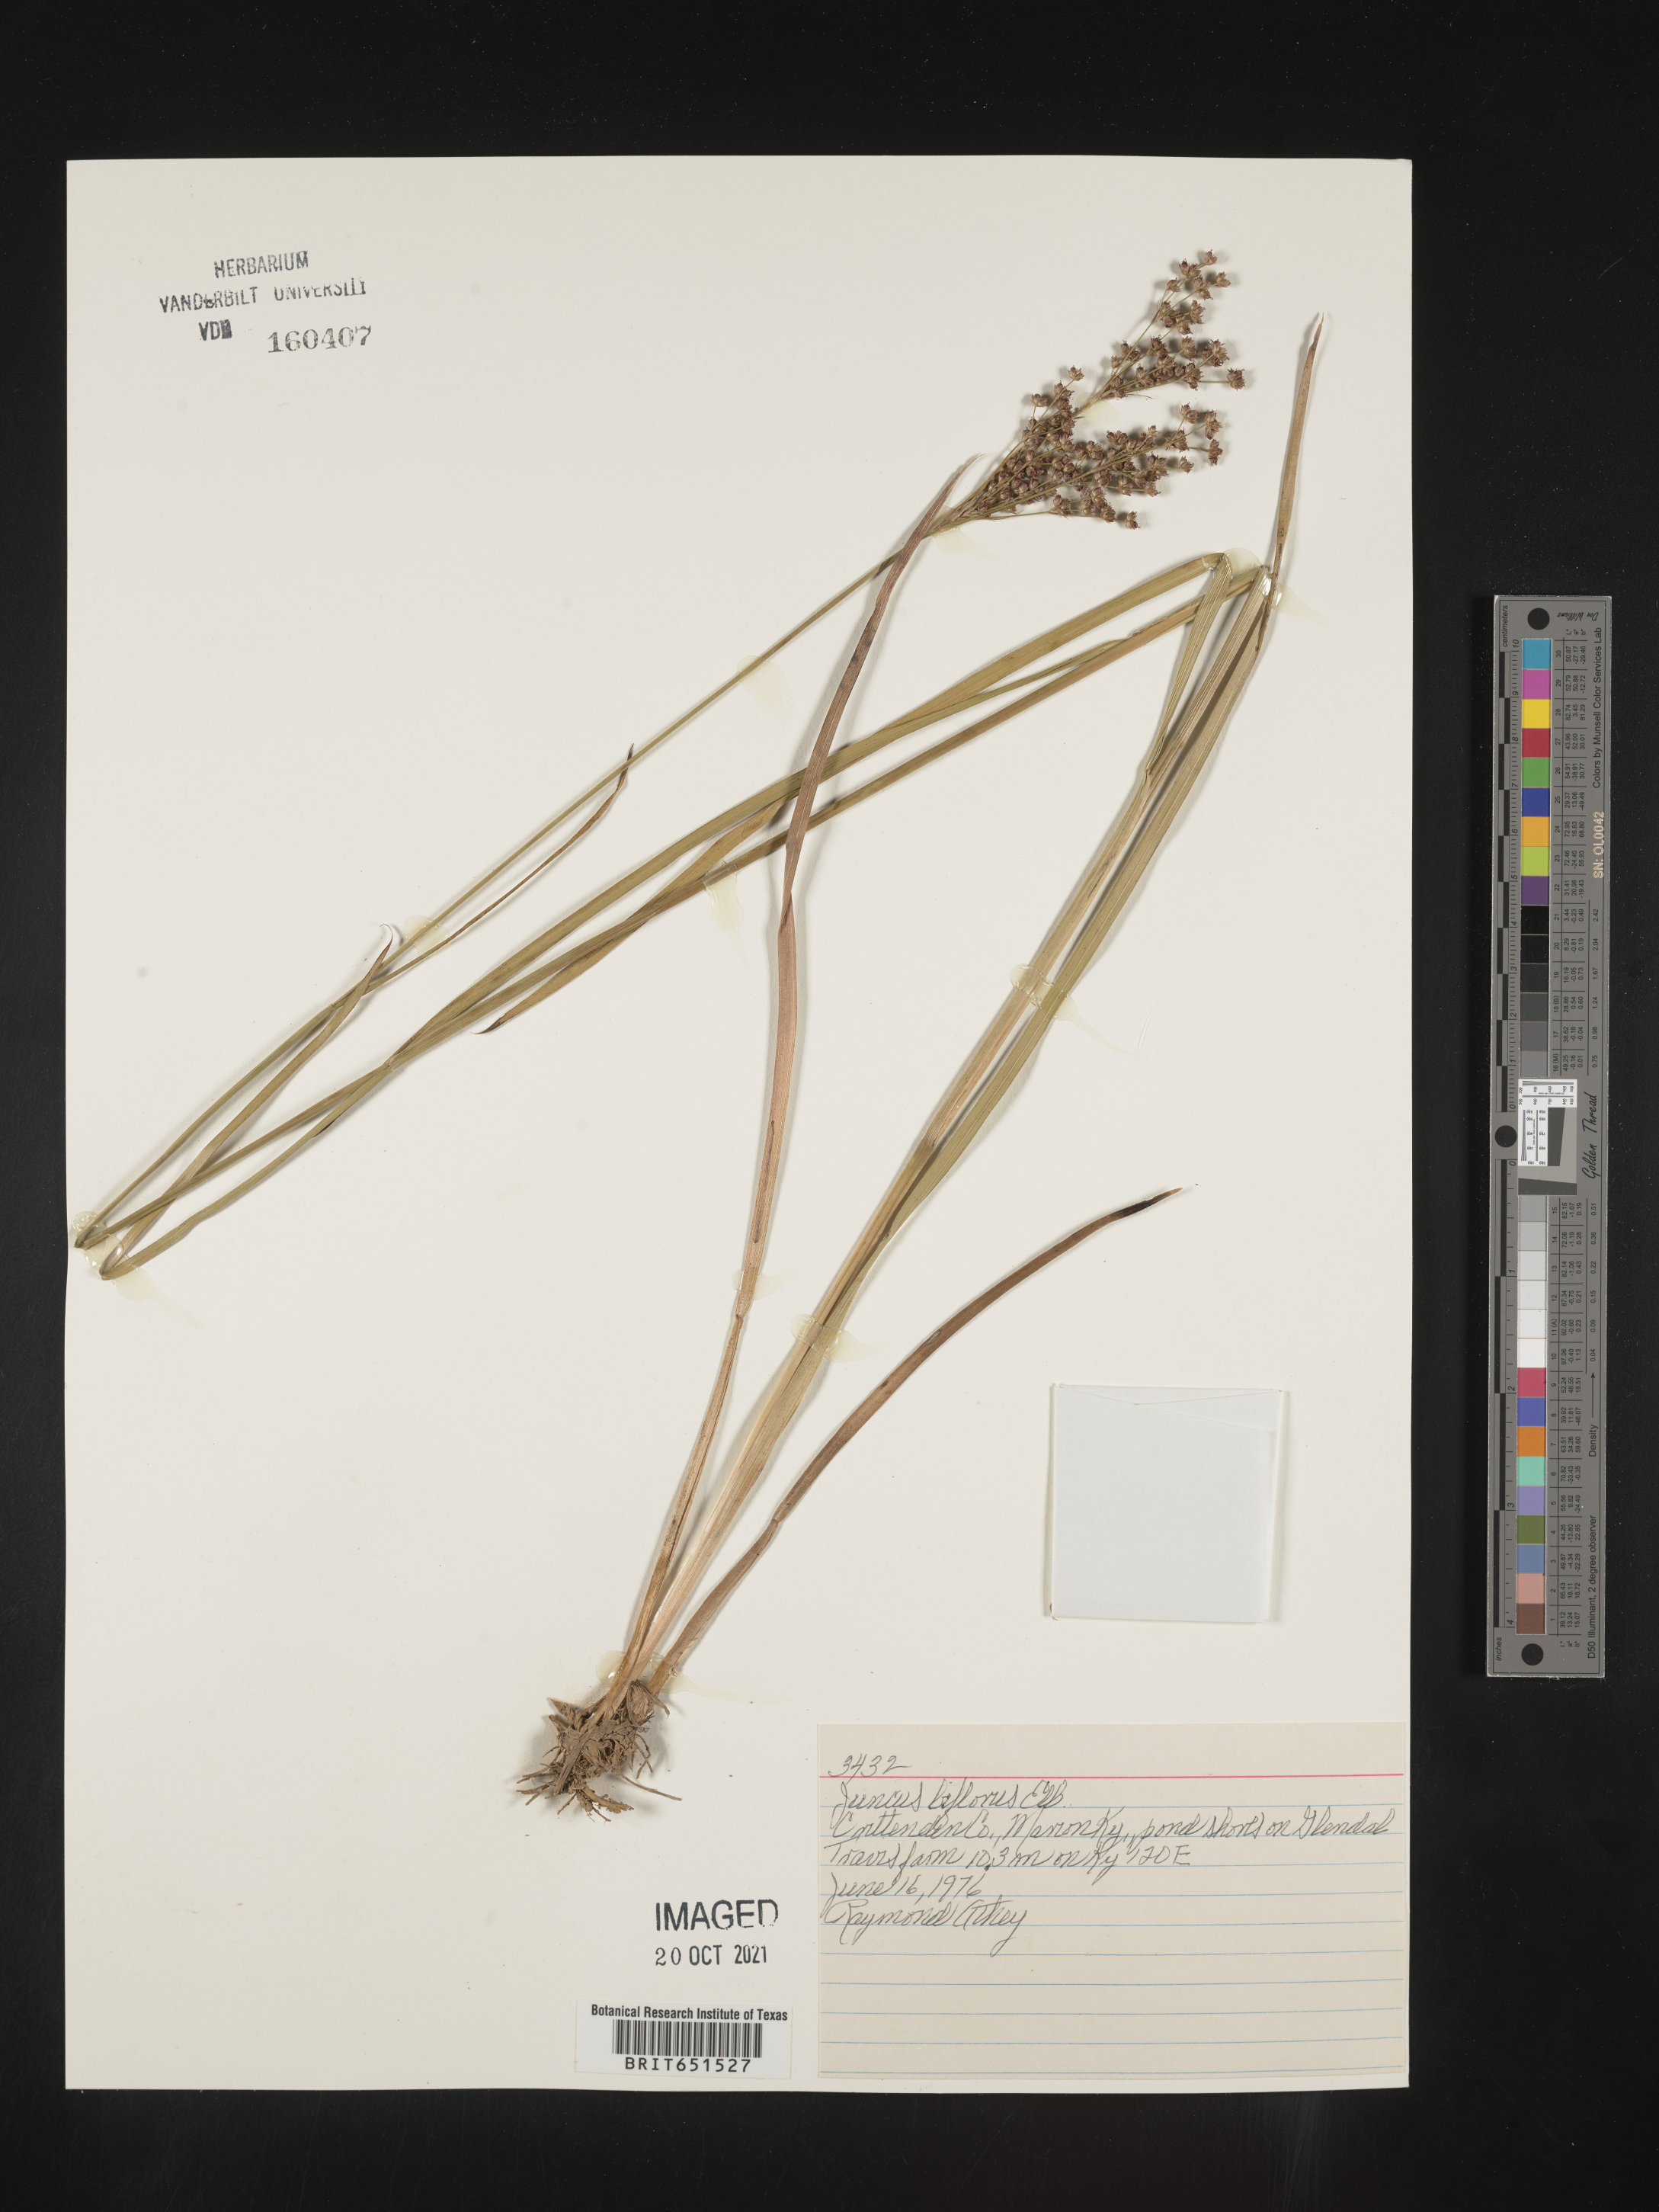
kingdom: Plantae
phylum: Tracheophyta
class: Liliopsida
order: Poales
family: Juncaceae
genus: Juncus
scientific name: Juncus biflorus
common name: Two-flowered rush
